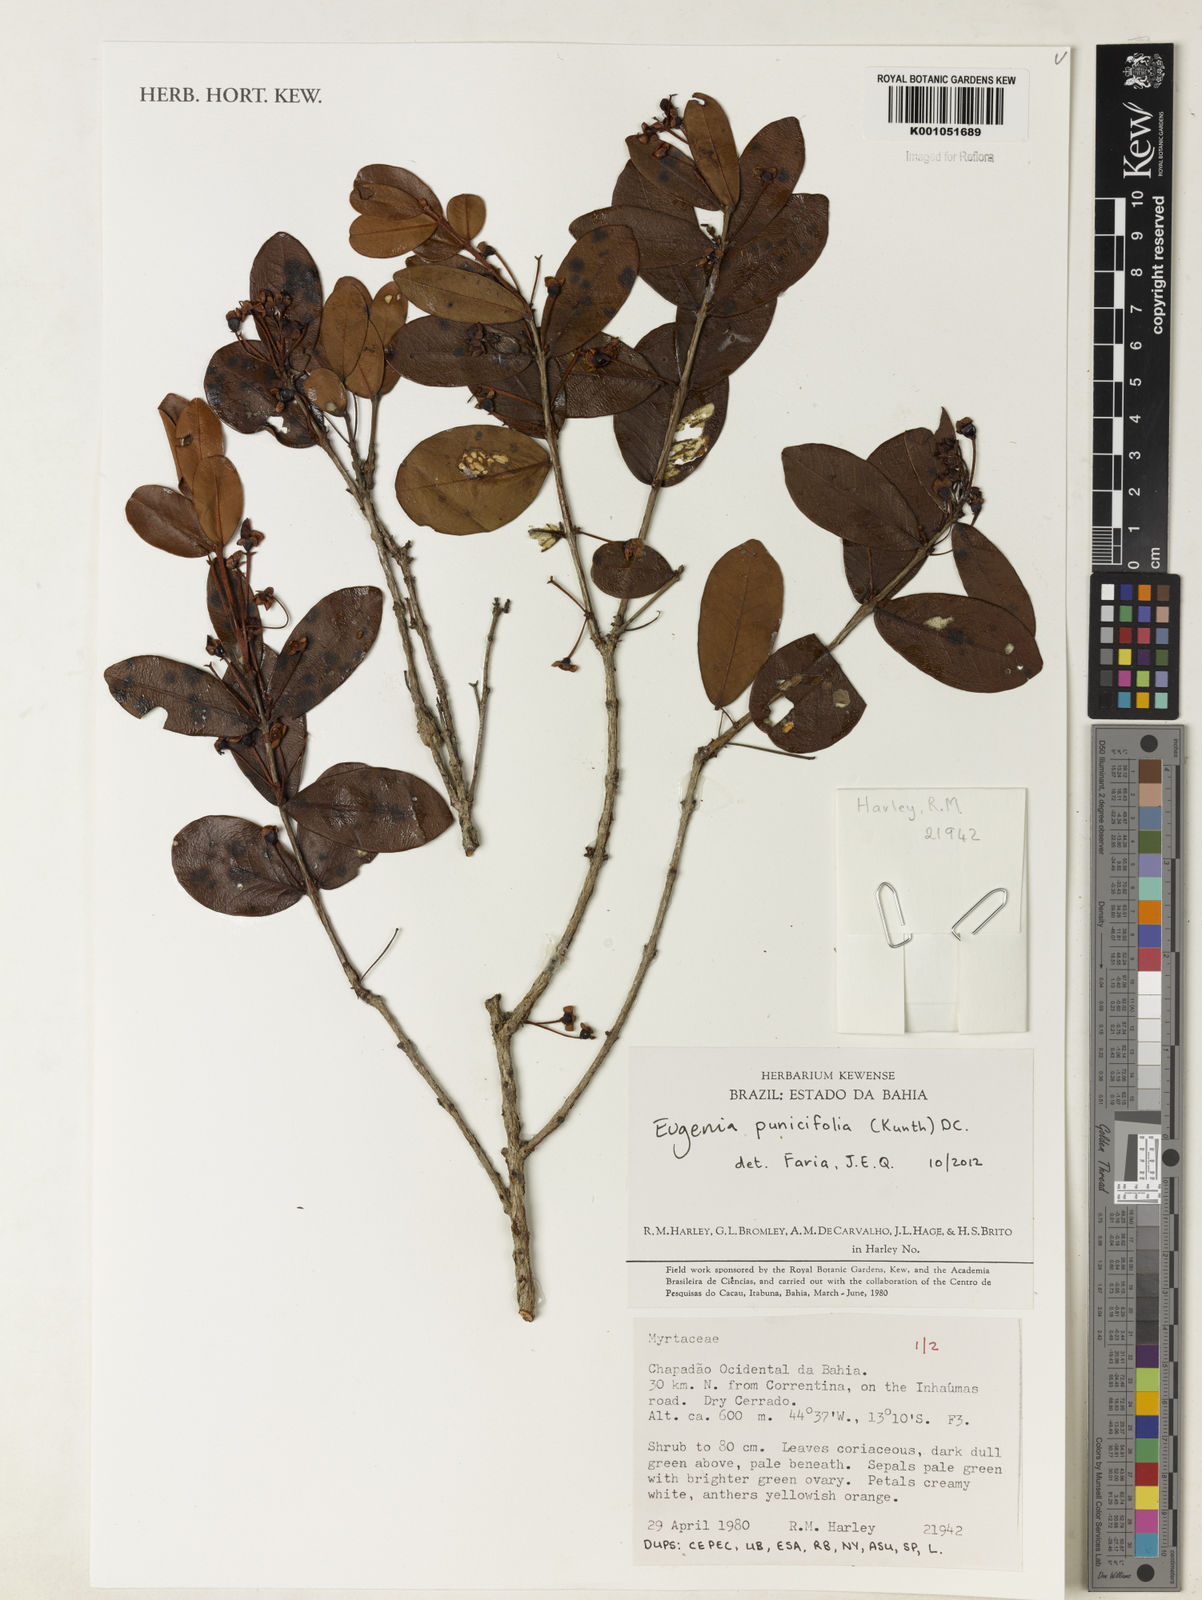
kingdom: Plantae
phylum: Tracheophyta
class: Magnoliopsida
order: Myrtales
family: Myrtaceae
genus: Eugenia
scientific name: Eugenia punicifolia
